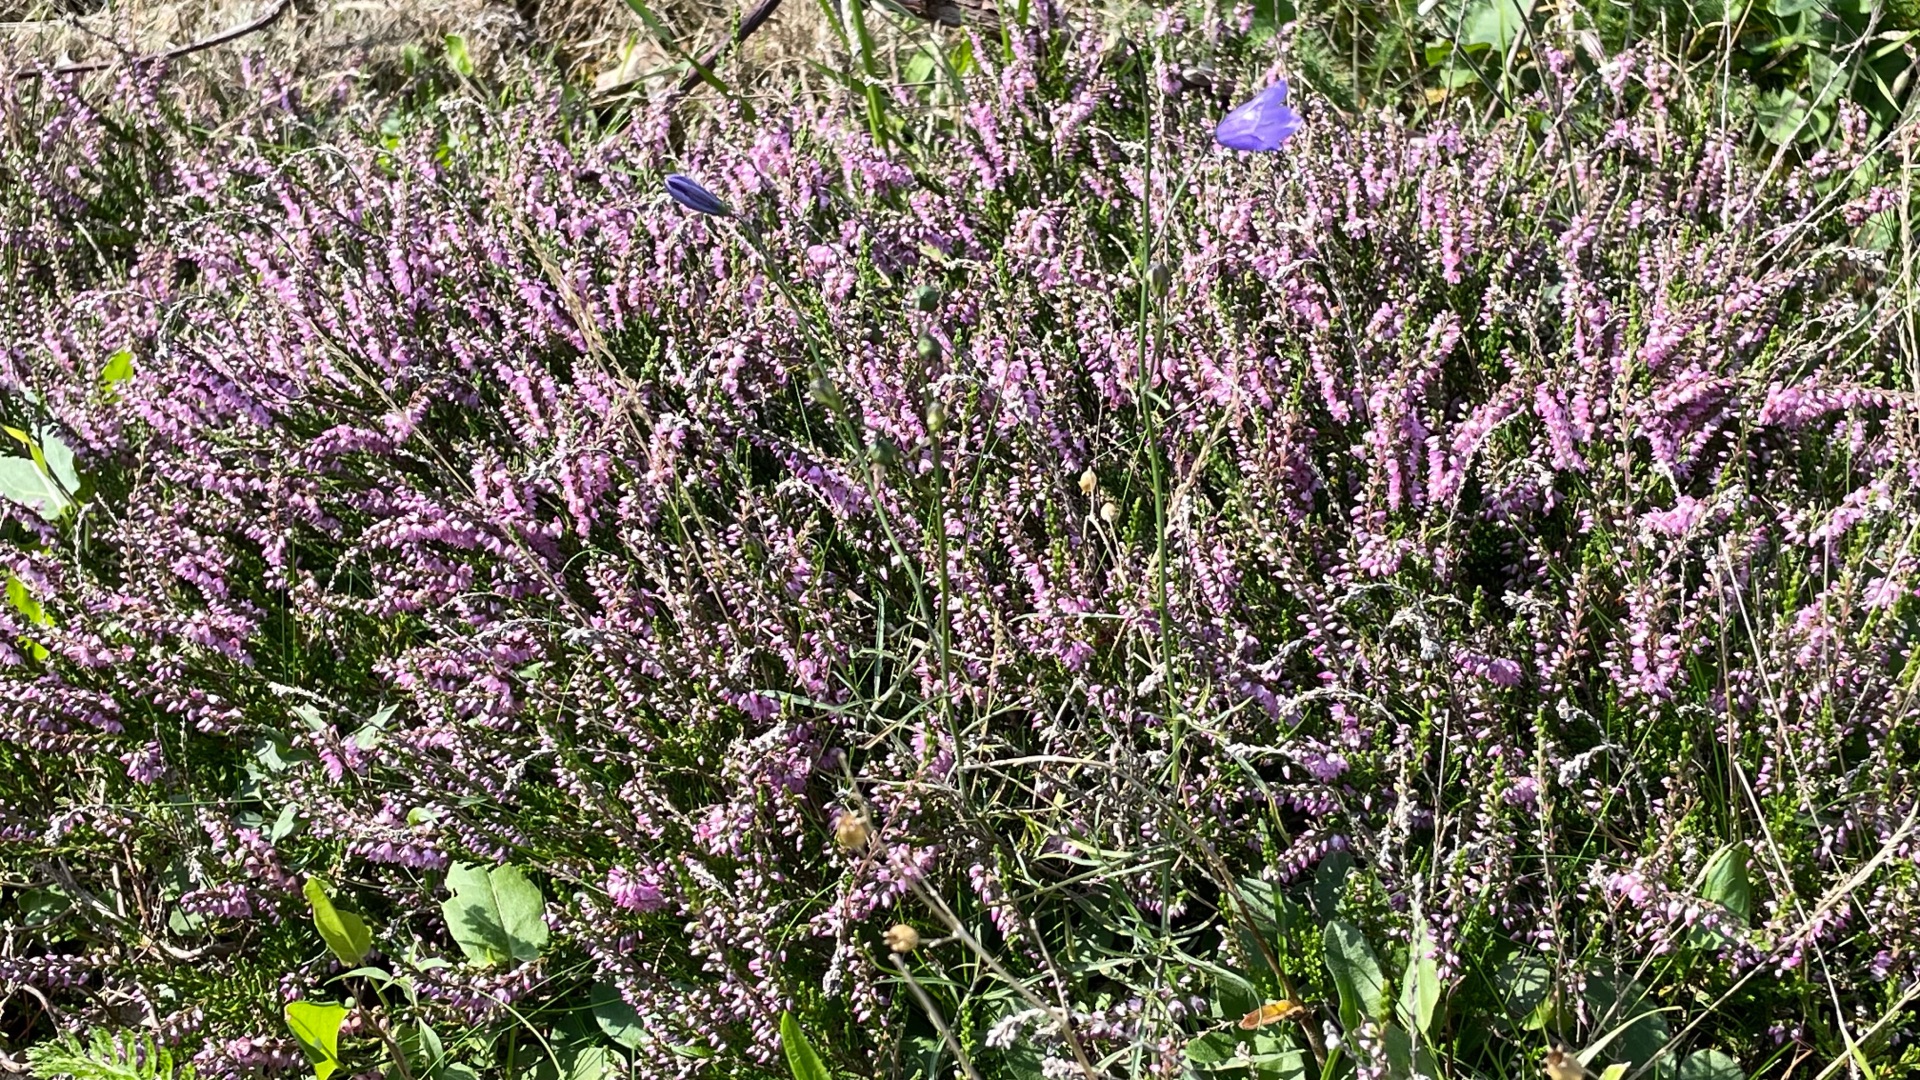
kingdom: Plantae
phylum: Tracheophyta
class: Magnoliopsida
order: Ericales
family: Ericaceae
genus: Calluna
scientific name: Calluna vulgaris
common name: Hedelyng
